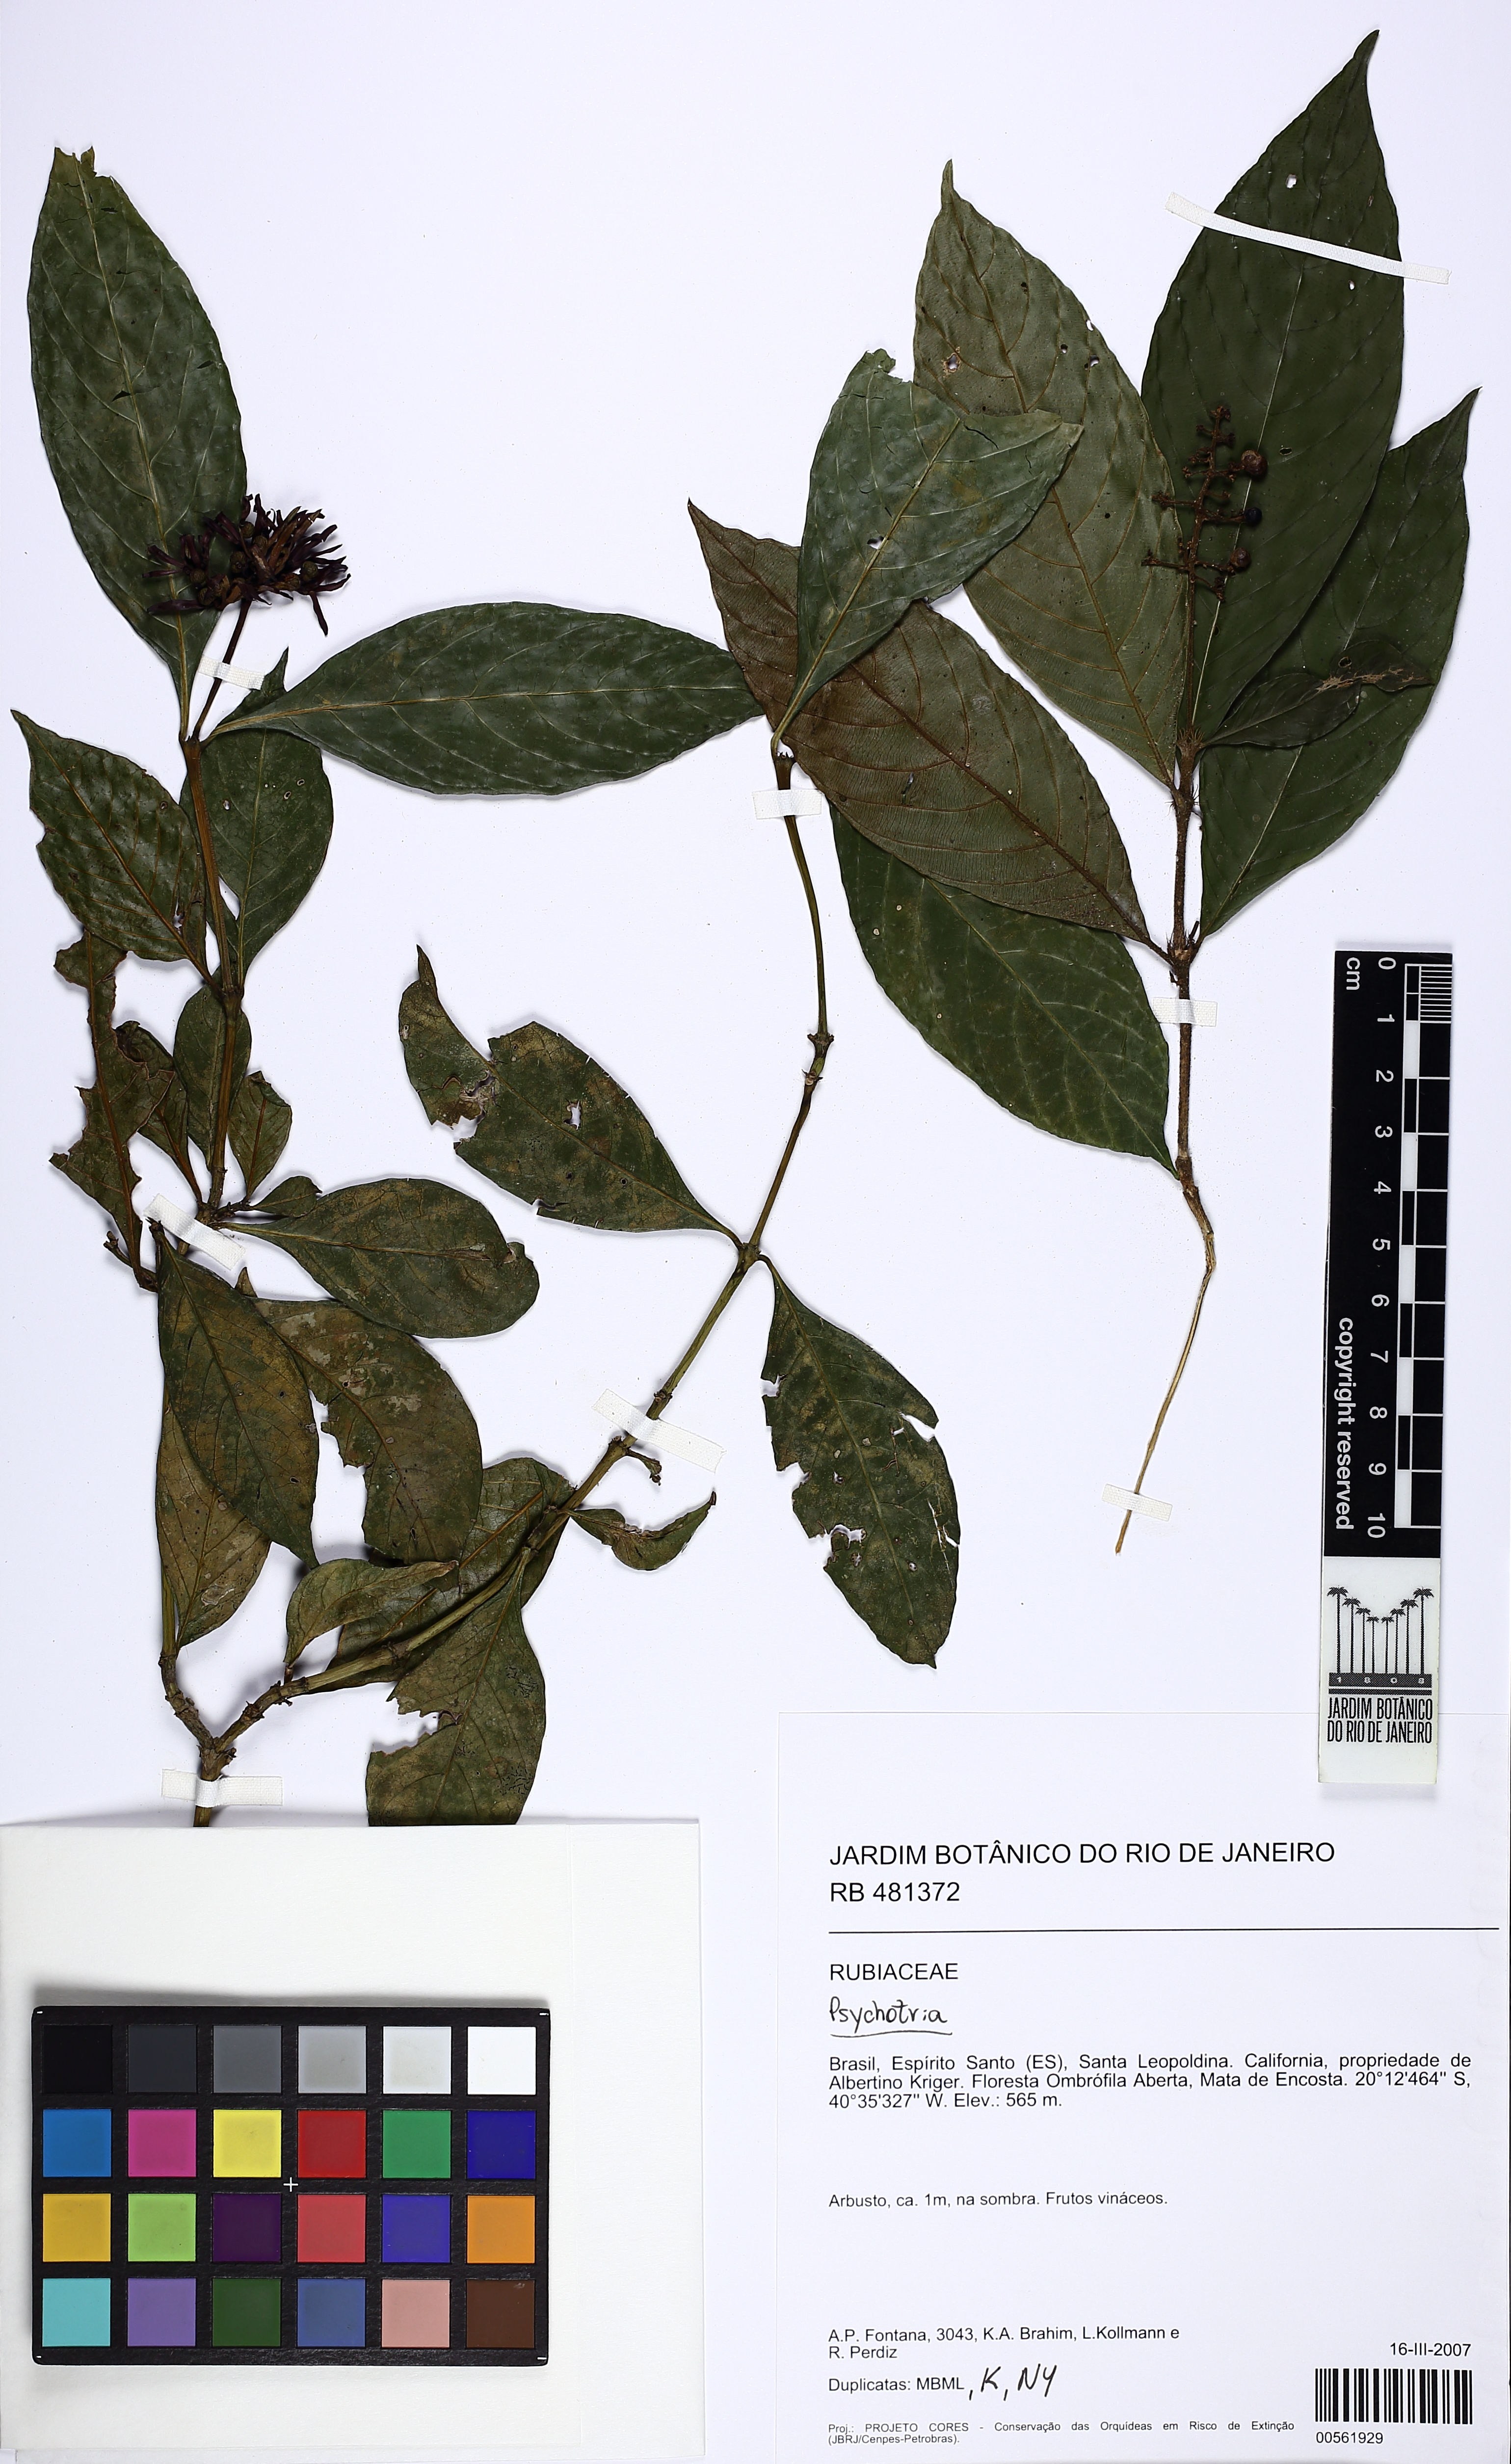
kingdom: Plantae
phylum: Tracheophyta
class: Magnoliopsida
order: Gentianales
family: Rubiaceae
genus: Palicourea
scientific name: Palicourea justiciifolia
